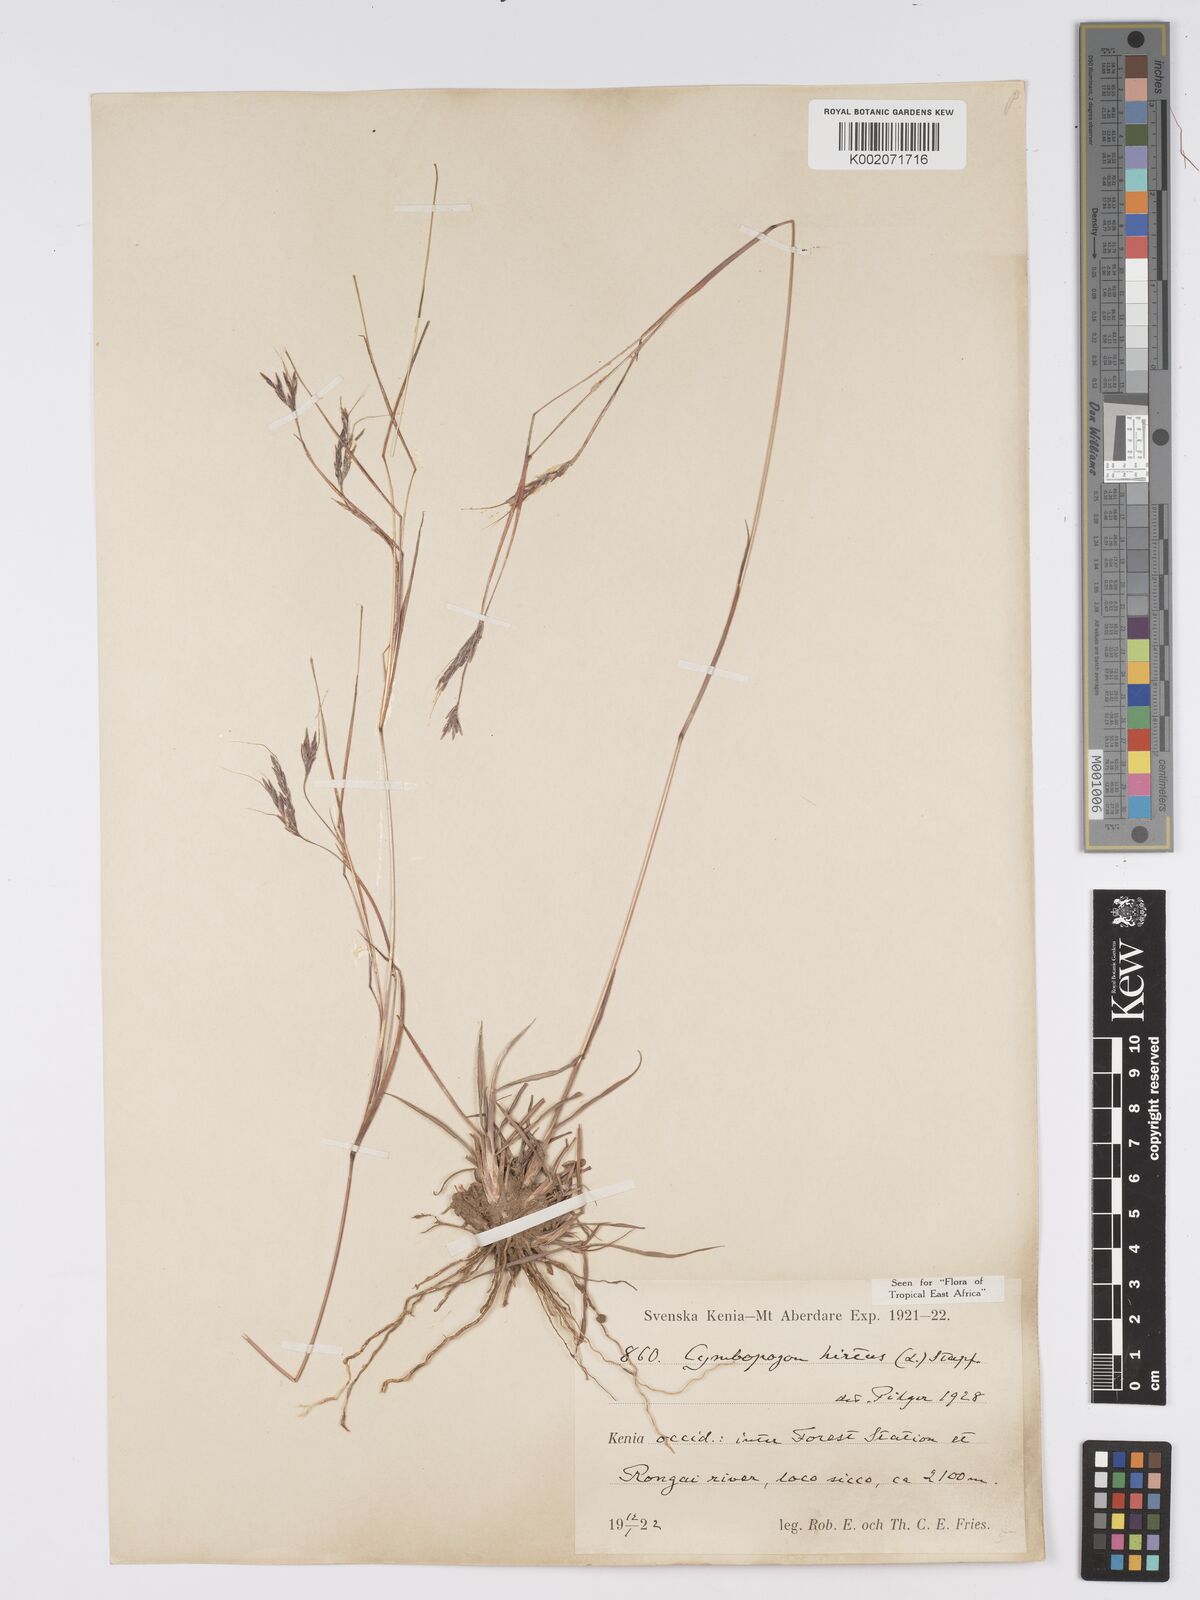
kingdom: Plantae
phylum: Tracheophyta
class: Liliopsida
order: Poales
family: Poaceae
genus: Hyparrhenia
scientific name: Hyparrhenia hirta
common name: Thatching grass
